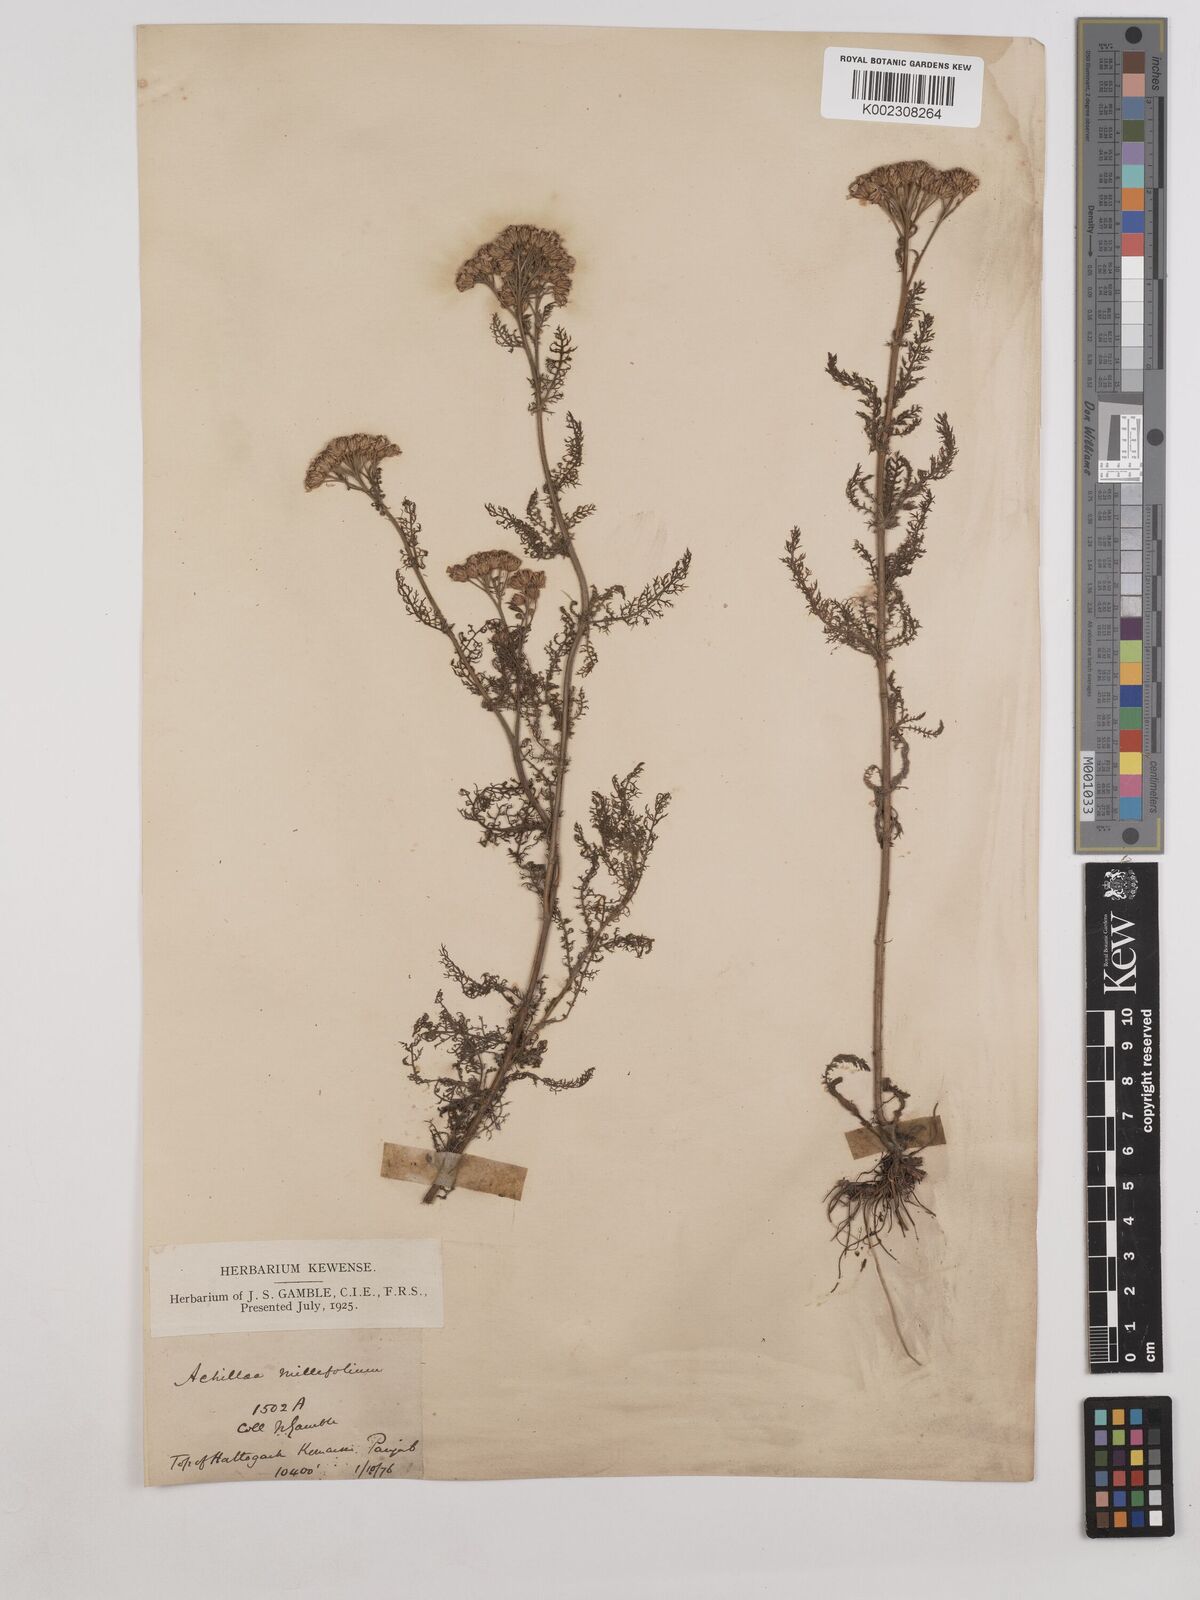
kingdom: Plantae
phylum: Tracheophyta
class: Magnoliopsida
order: Asterales
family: Asteraceae
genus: Achillea
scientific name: Achillea millefolium
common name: Yarrow
